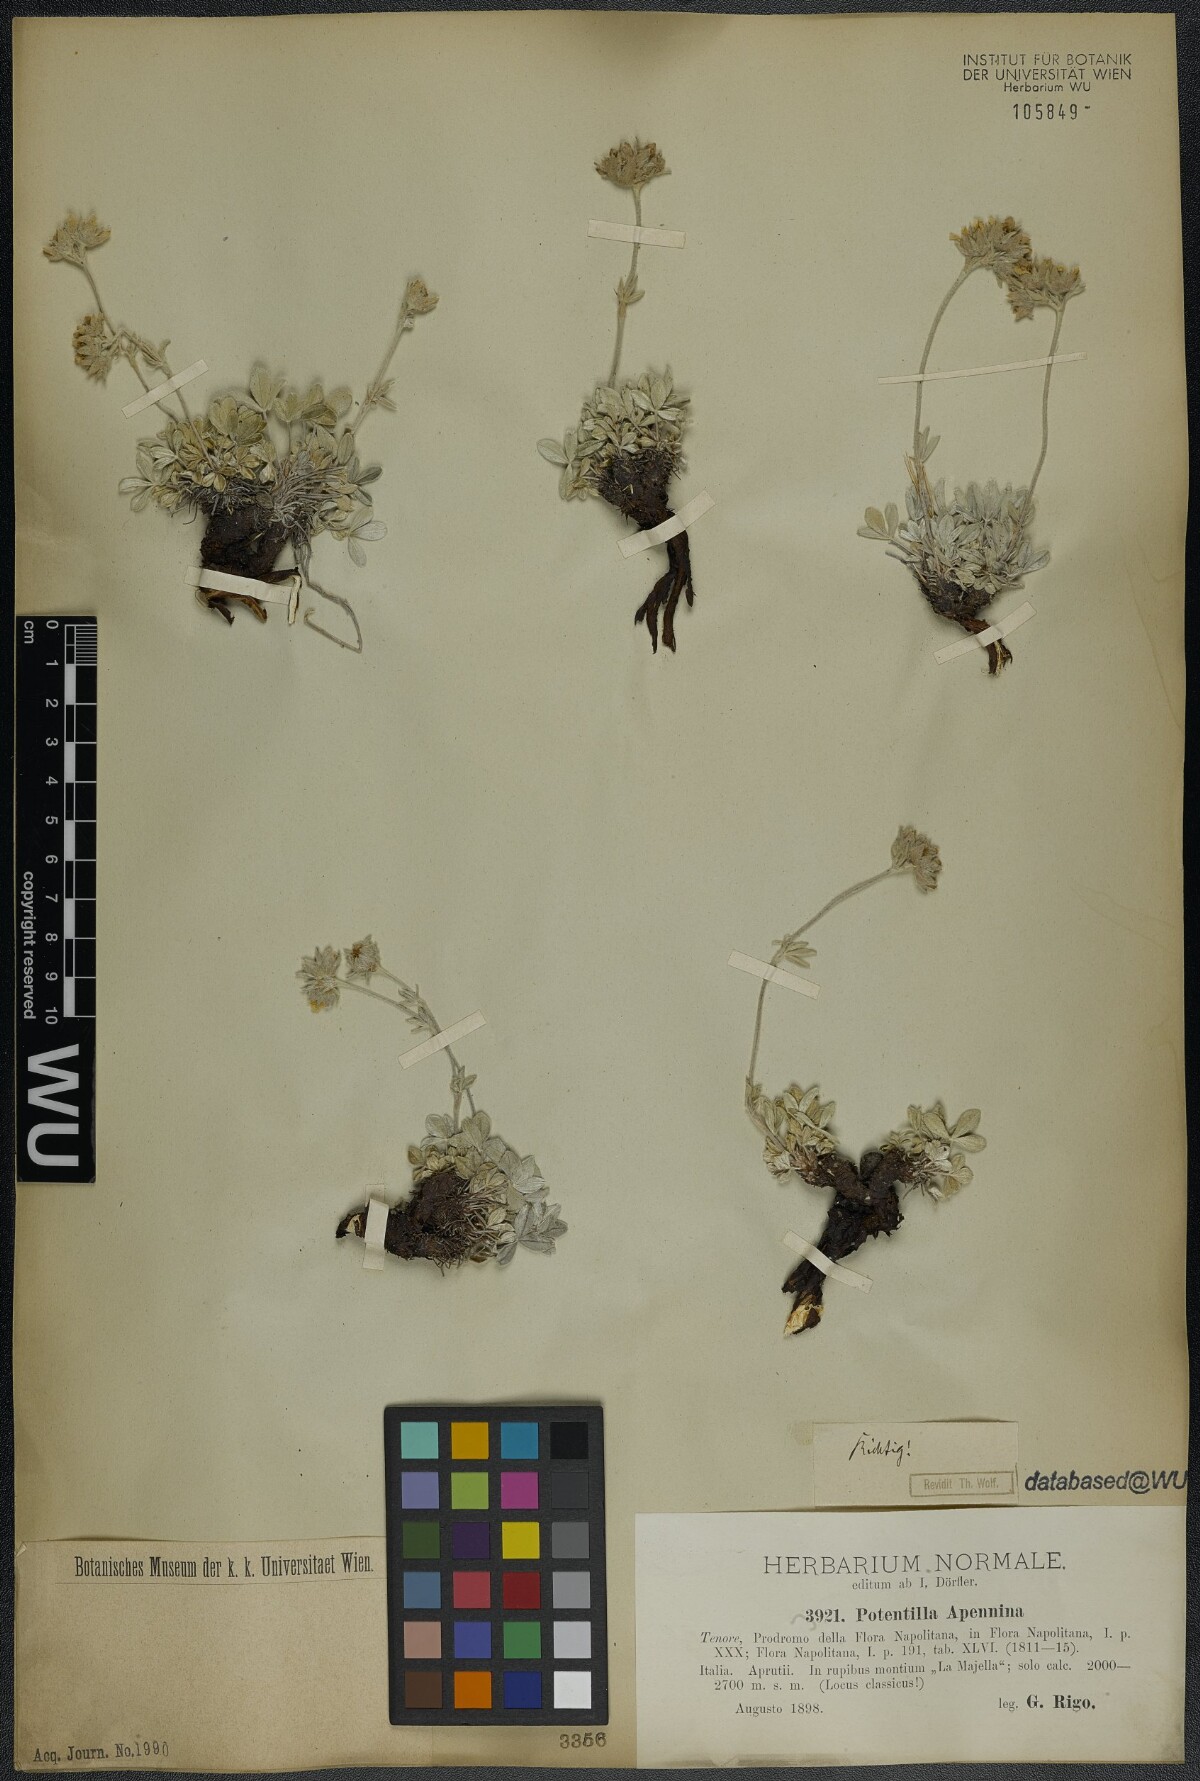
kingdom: Plantae
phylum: Tracheophyta
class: Magnoliopsida
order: Rosales
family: Rosaceae
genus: Potentilla
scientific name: Potentilla apennina
